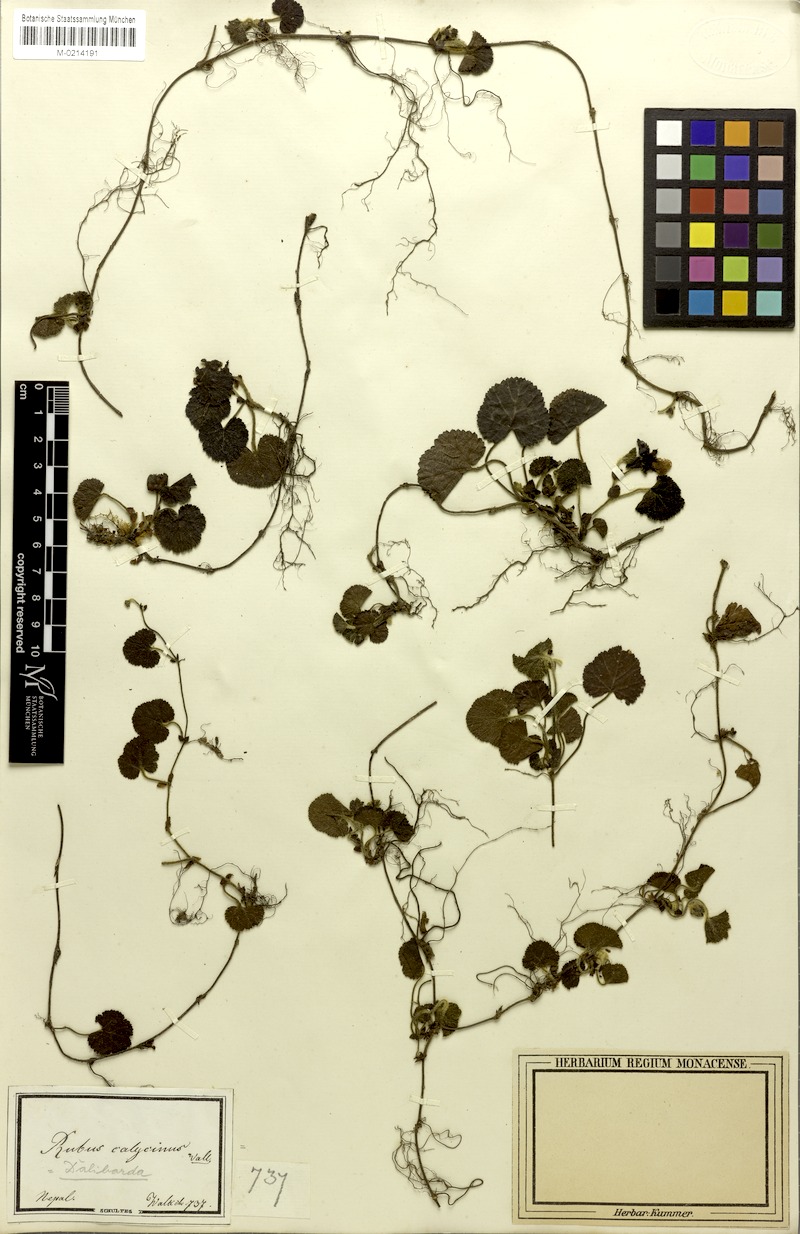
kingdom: Plantae
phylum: Tracheophyta
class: Magnoliopsida
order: Rosales
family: Rosaceae
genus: Rubus
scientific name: Rubus calycinus
